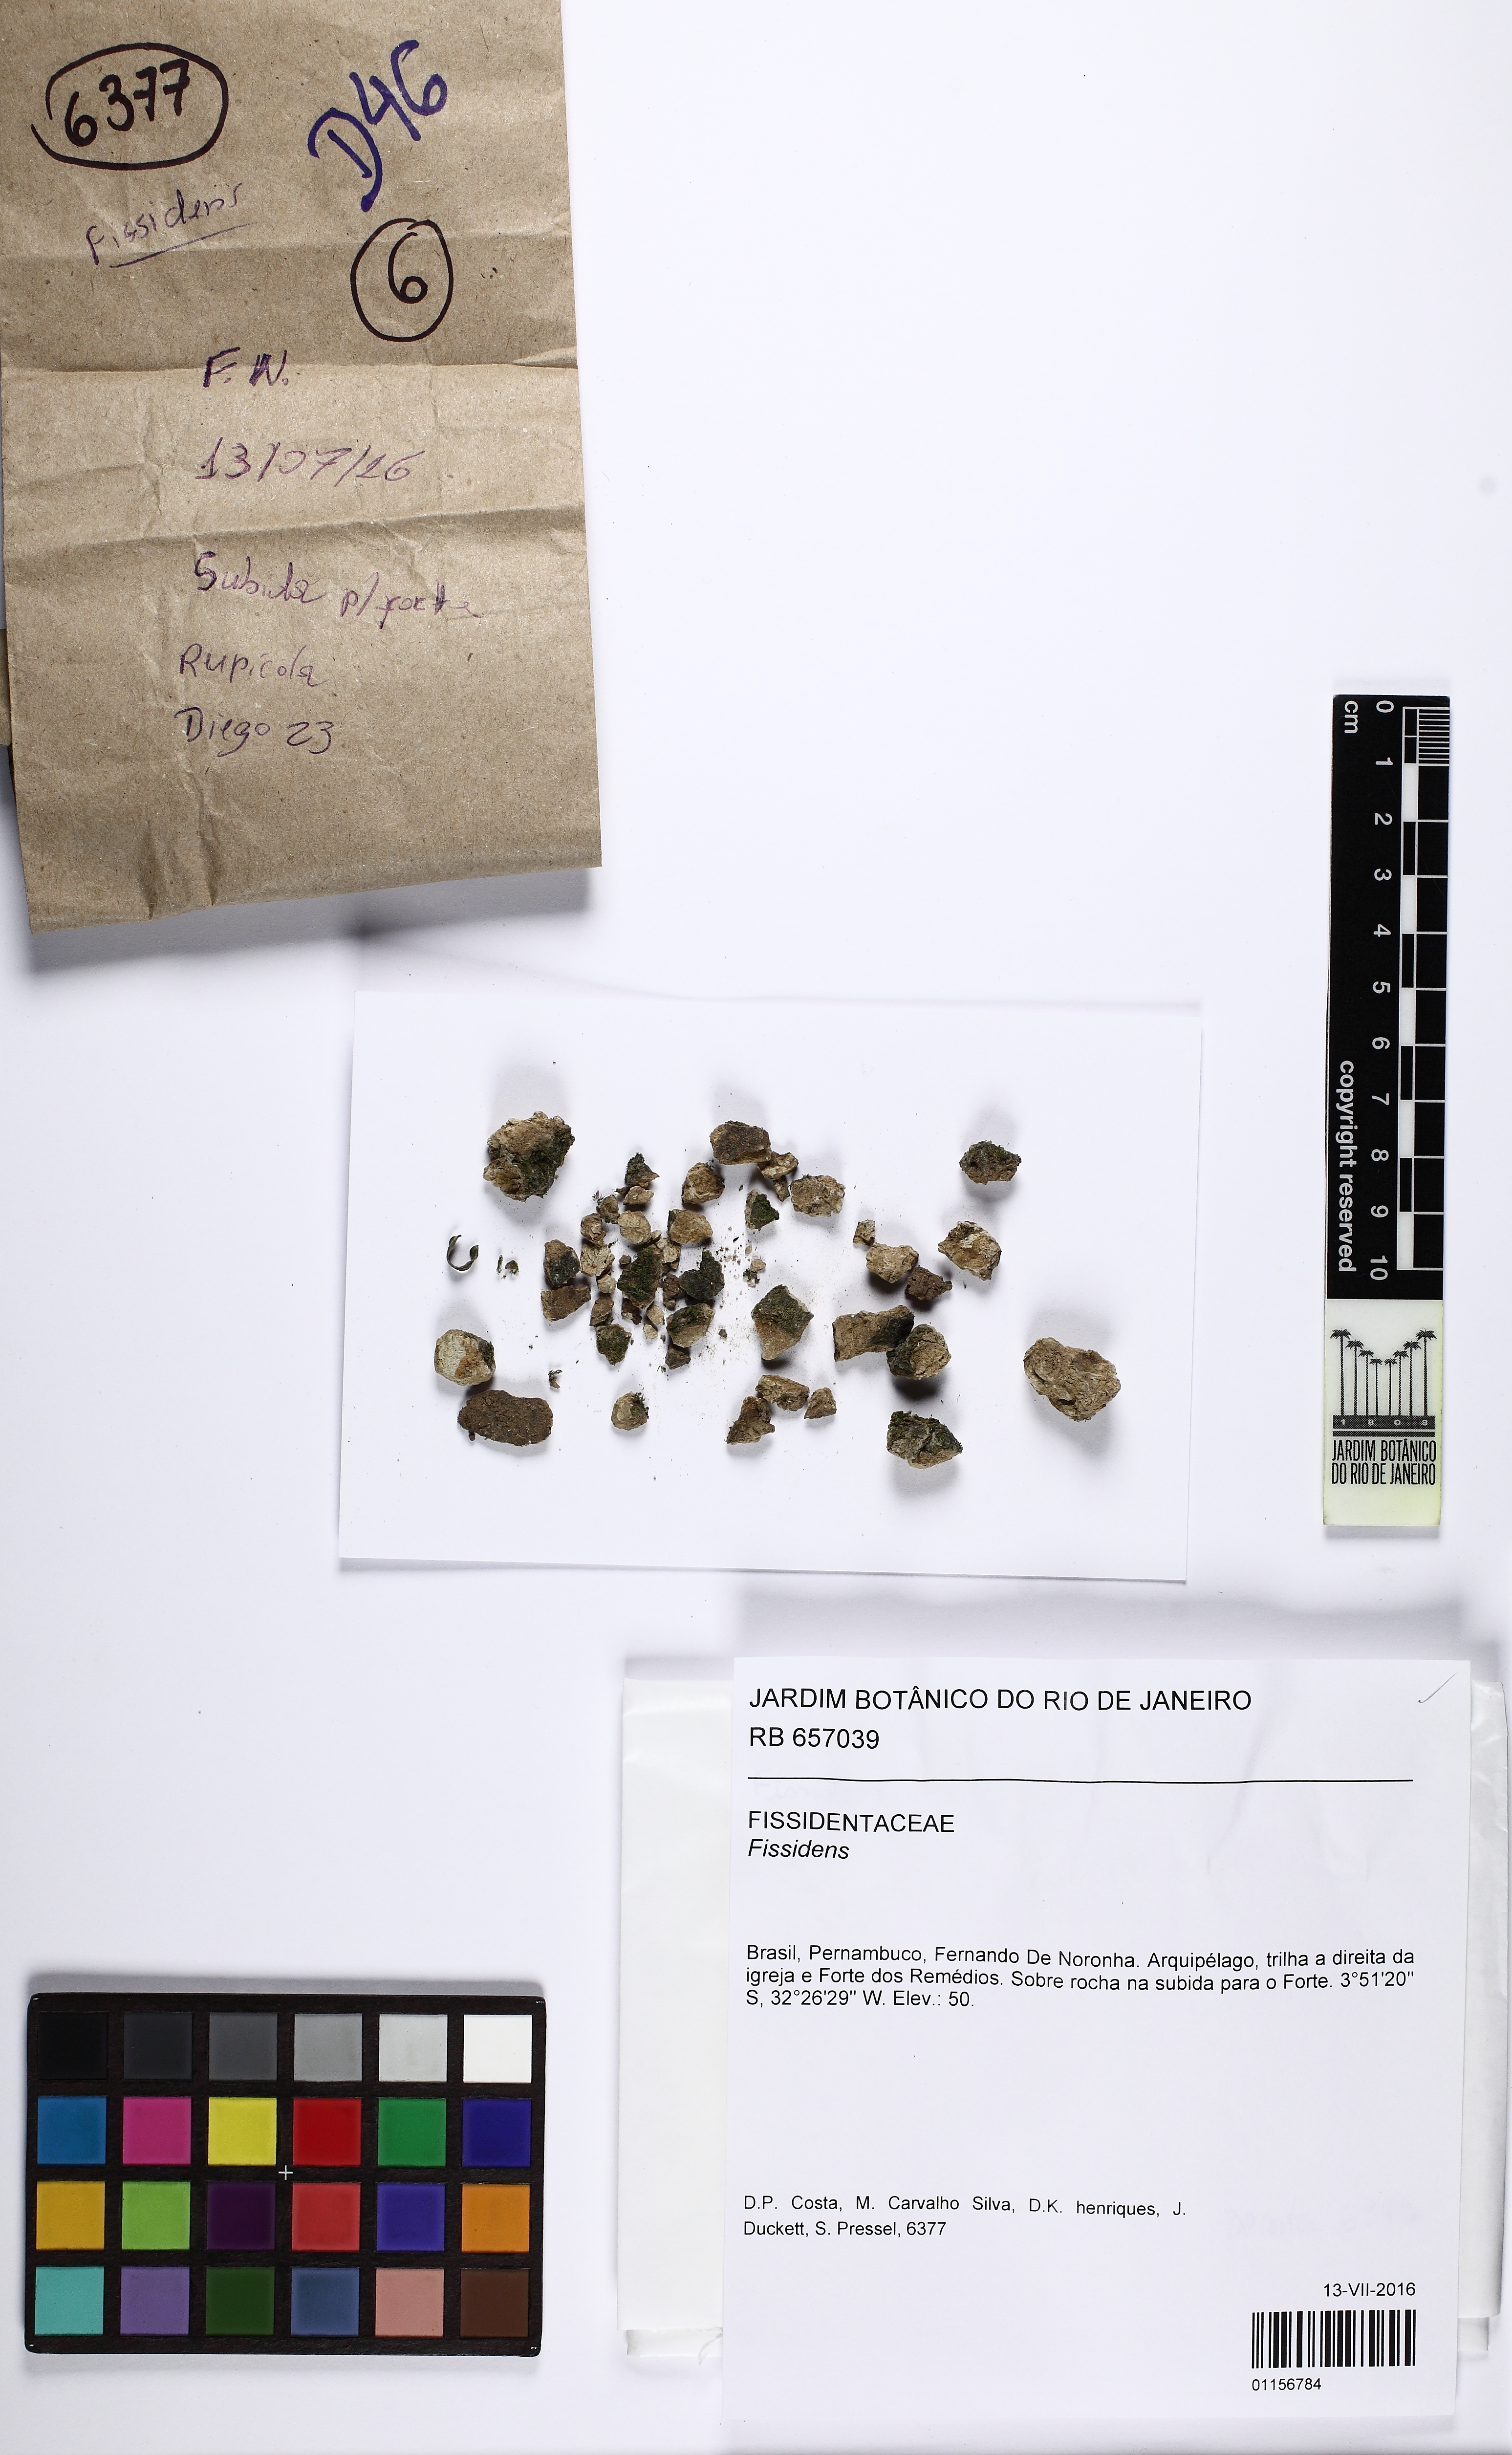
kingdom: Plantae
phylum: Bryophyta
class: Bryopsida
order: Dicranales
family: Fissidentaceae
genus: Fissidens
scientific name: Fissidens
